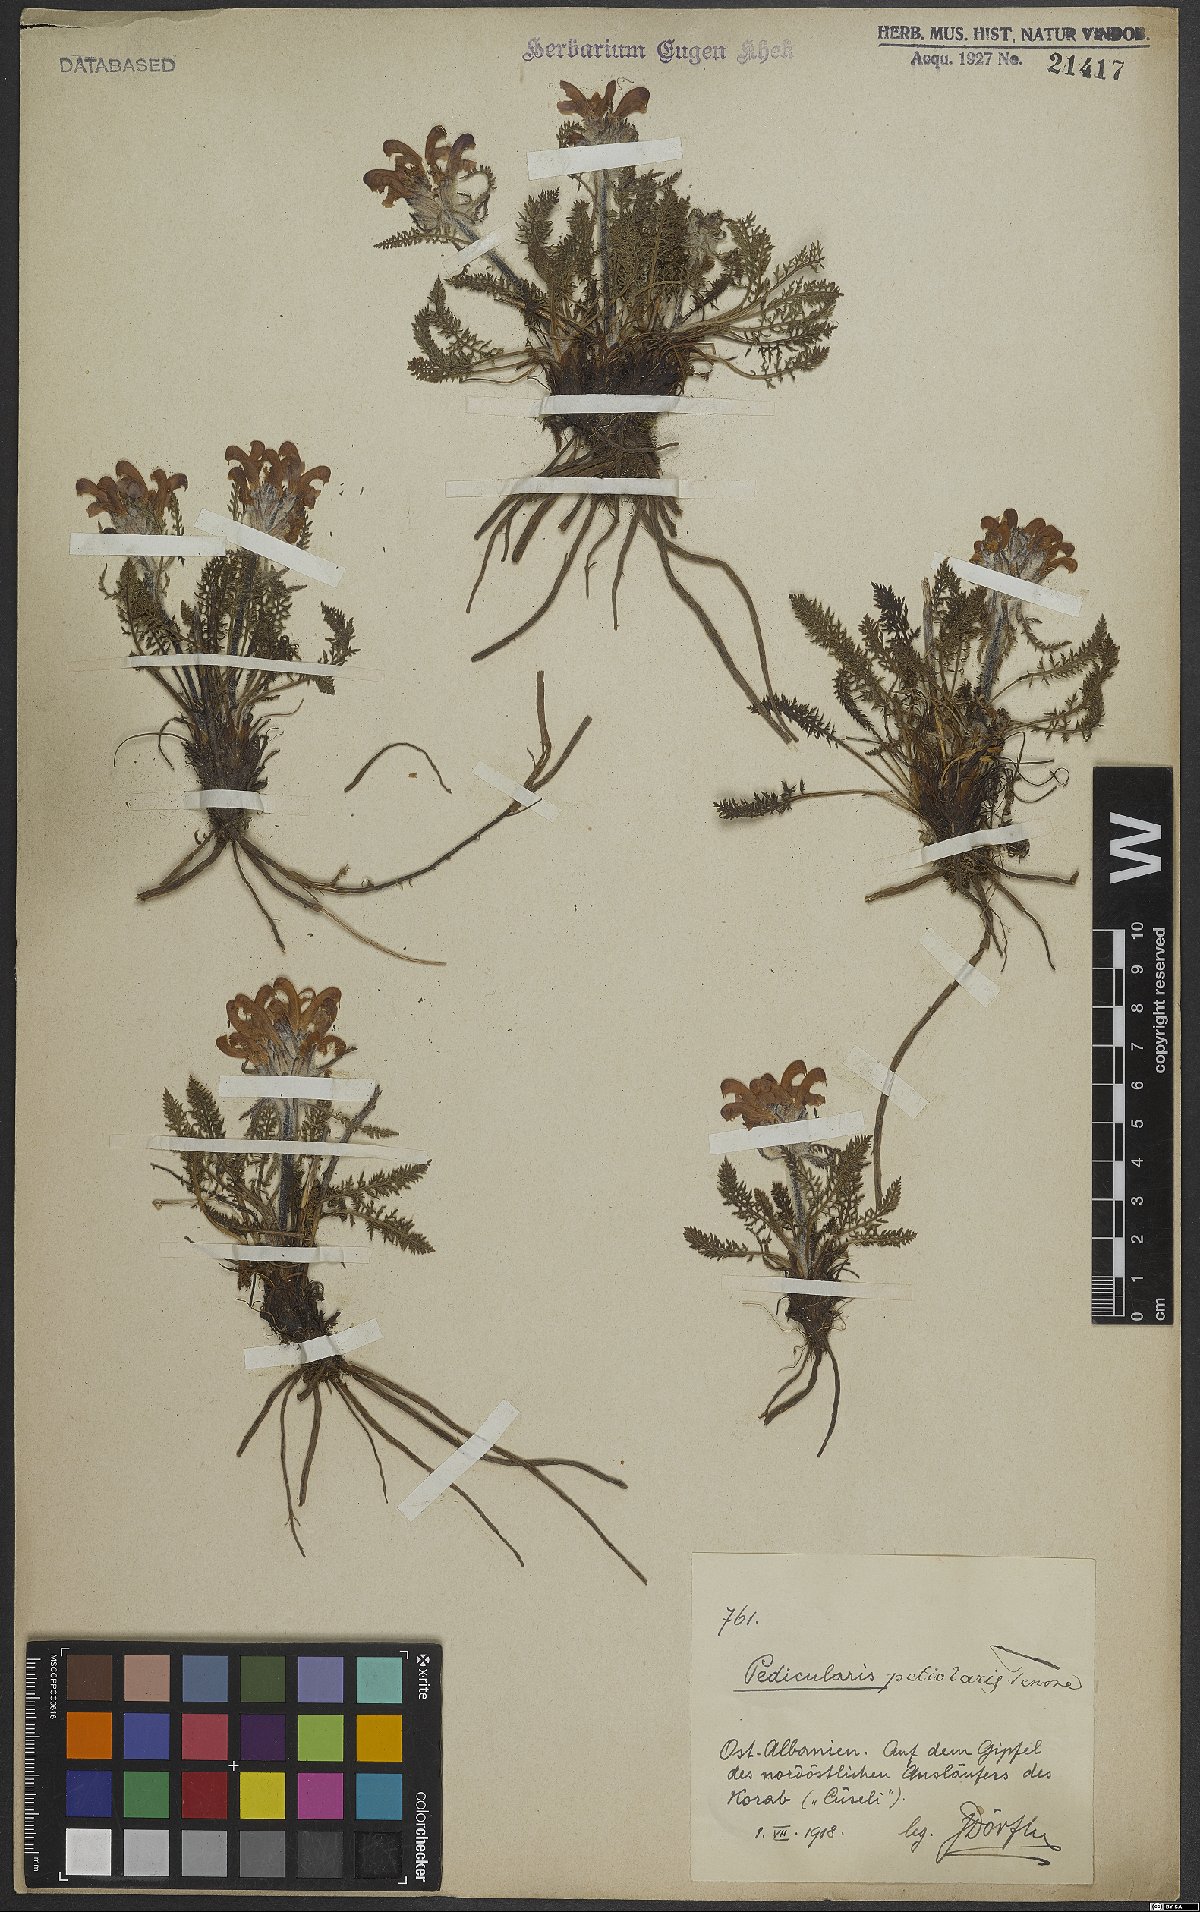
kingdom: Plantae
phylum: Tracheophyta
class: Magnoliopsida
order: Lamiales
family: Orobanchaceae
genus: Pedicularis
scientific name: Pedicularis petiolaris
